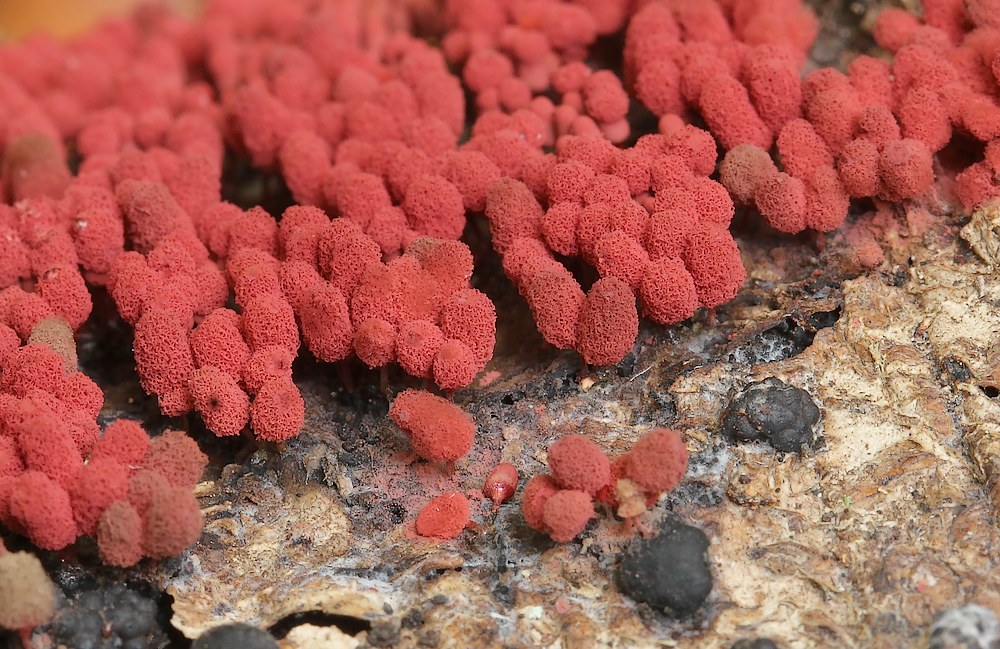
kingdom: Protozoa
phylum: Mycetozoa
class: Myxomycetes
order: Trichiales
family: Arcyriaceae
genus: Arcyria
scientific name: Arcyria denudata
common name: karminrød skålsvøb
